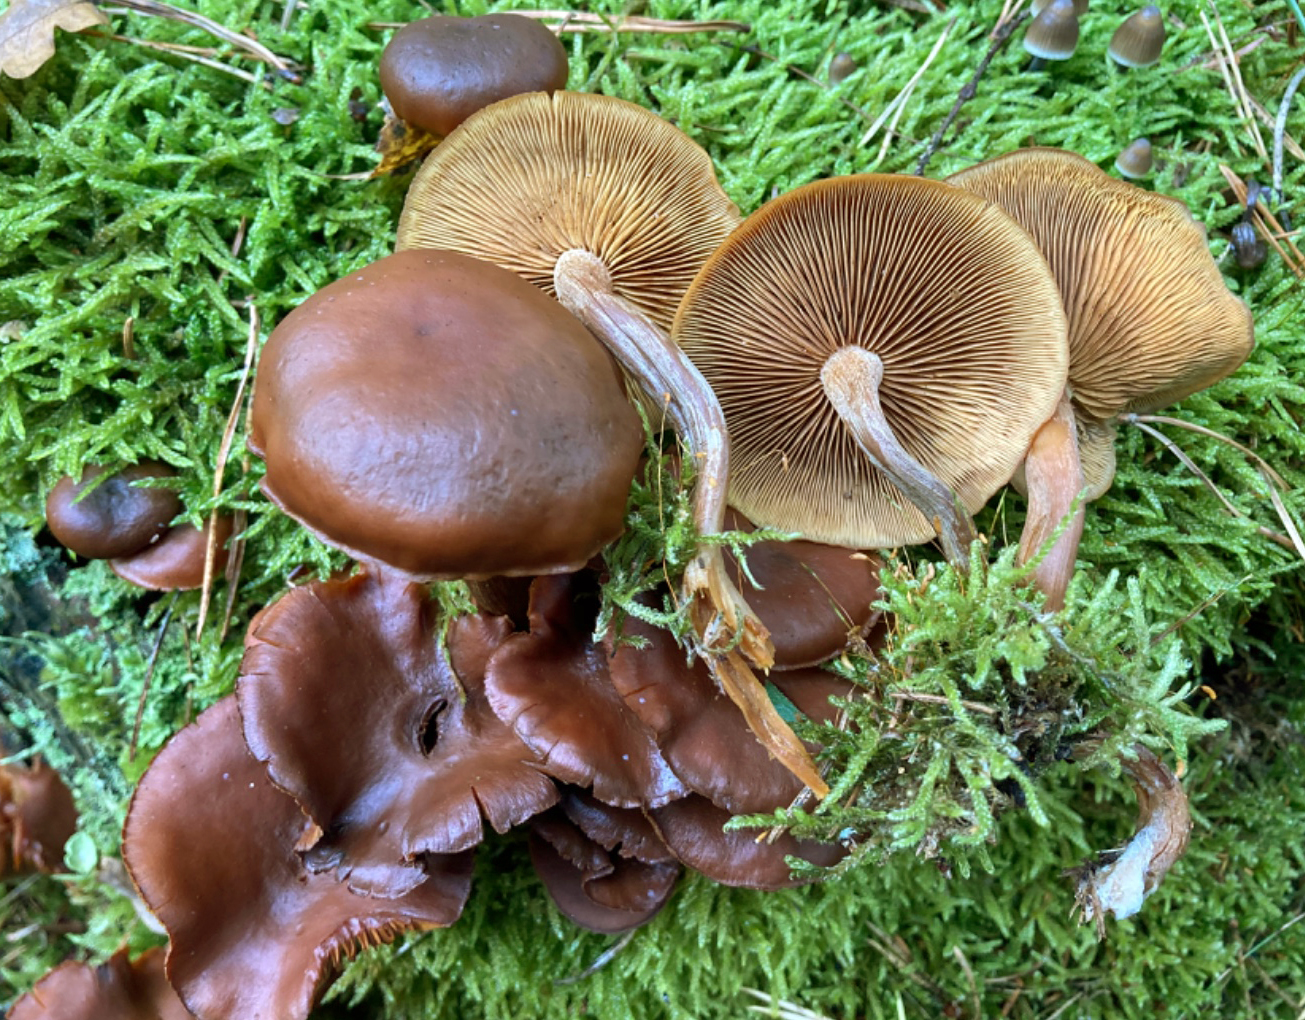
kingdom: Fungi
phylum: Basidiomycota
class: Agaricomycetes
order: Agaricales
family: Hymenogastraceae
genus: Gymnopilus
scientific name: Gymnopilus picreus
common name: puklet flammehat
